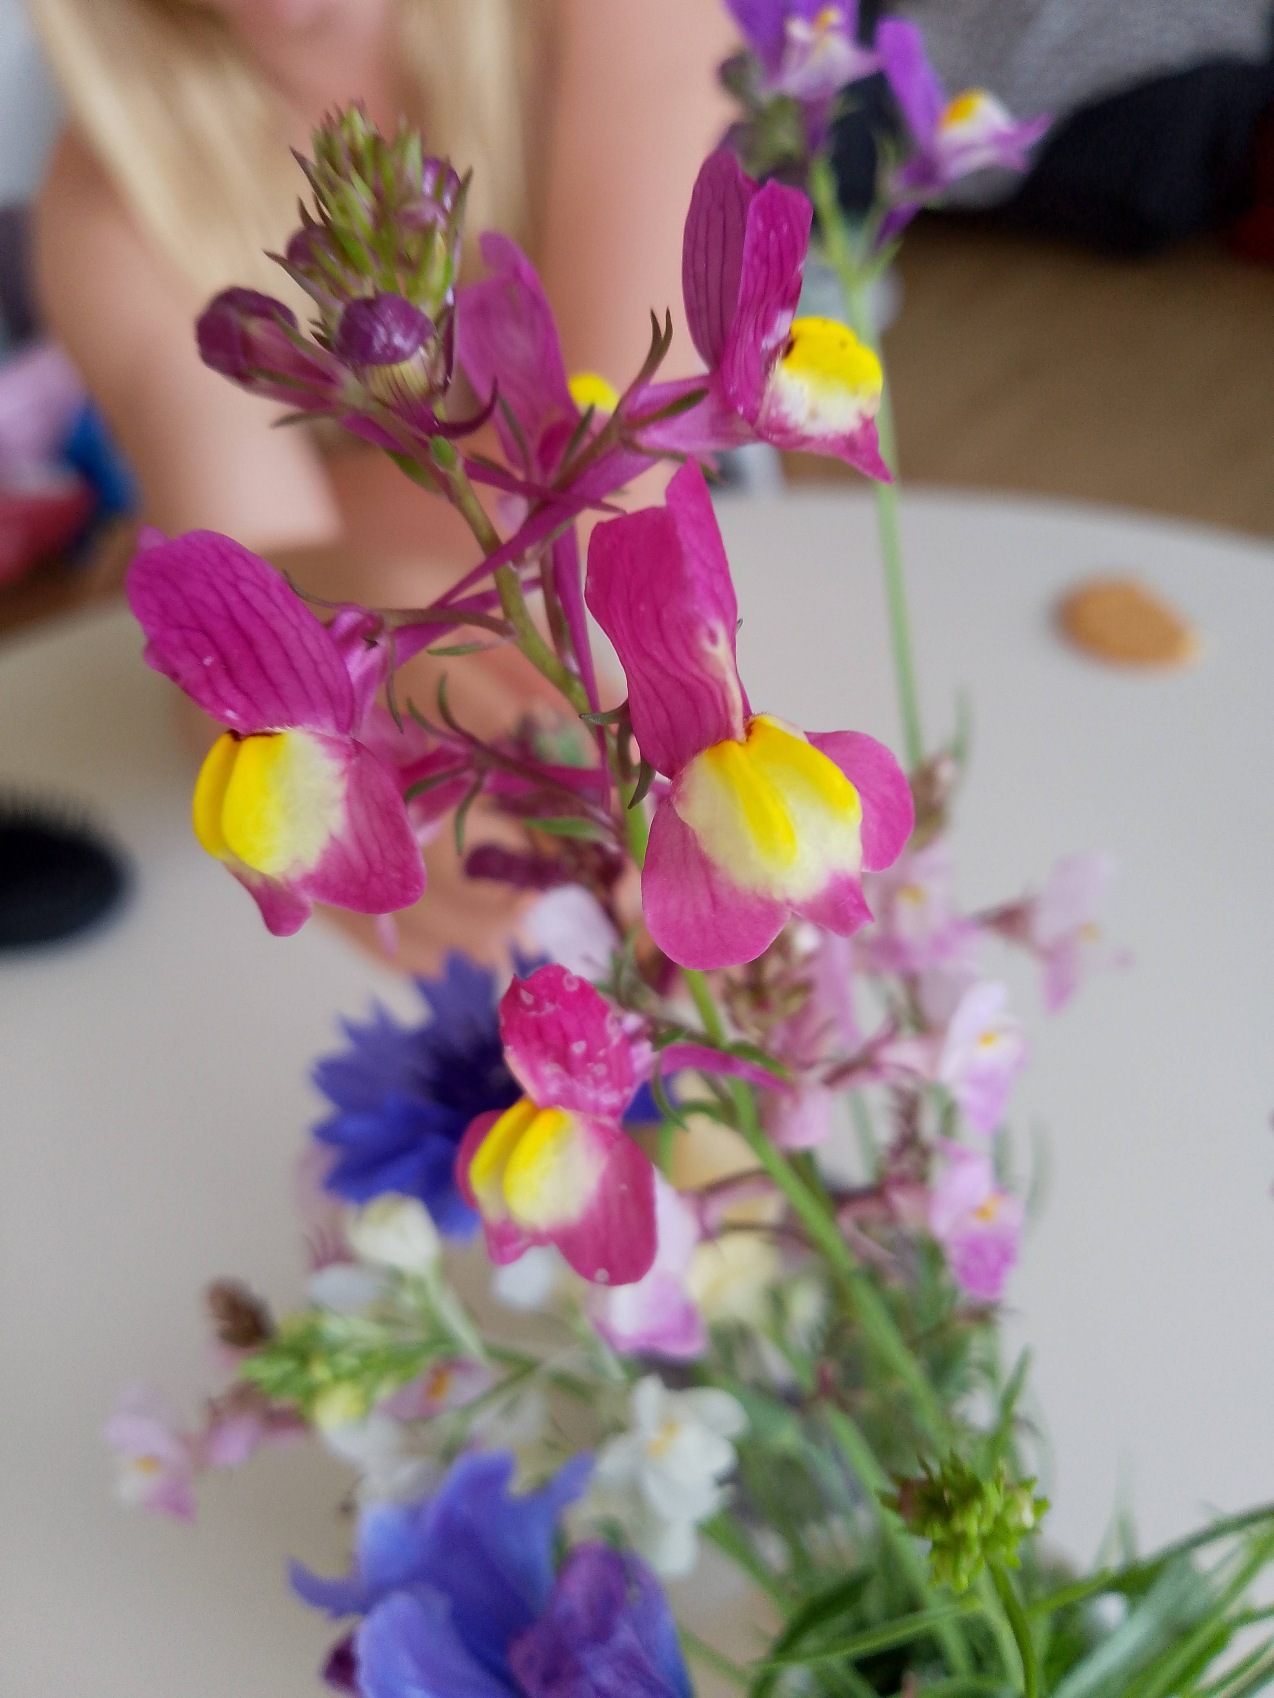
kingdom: Plantae
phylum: Tracheophyta
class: Magnoliopsida
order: Lamiales
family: Plantaginaceae
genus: Linaria
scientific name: Linaria maroccana
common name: Marokkansk torskemund
